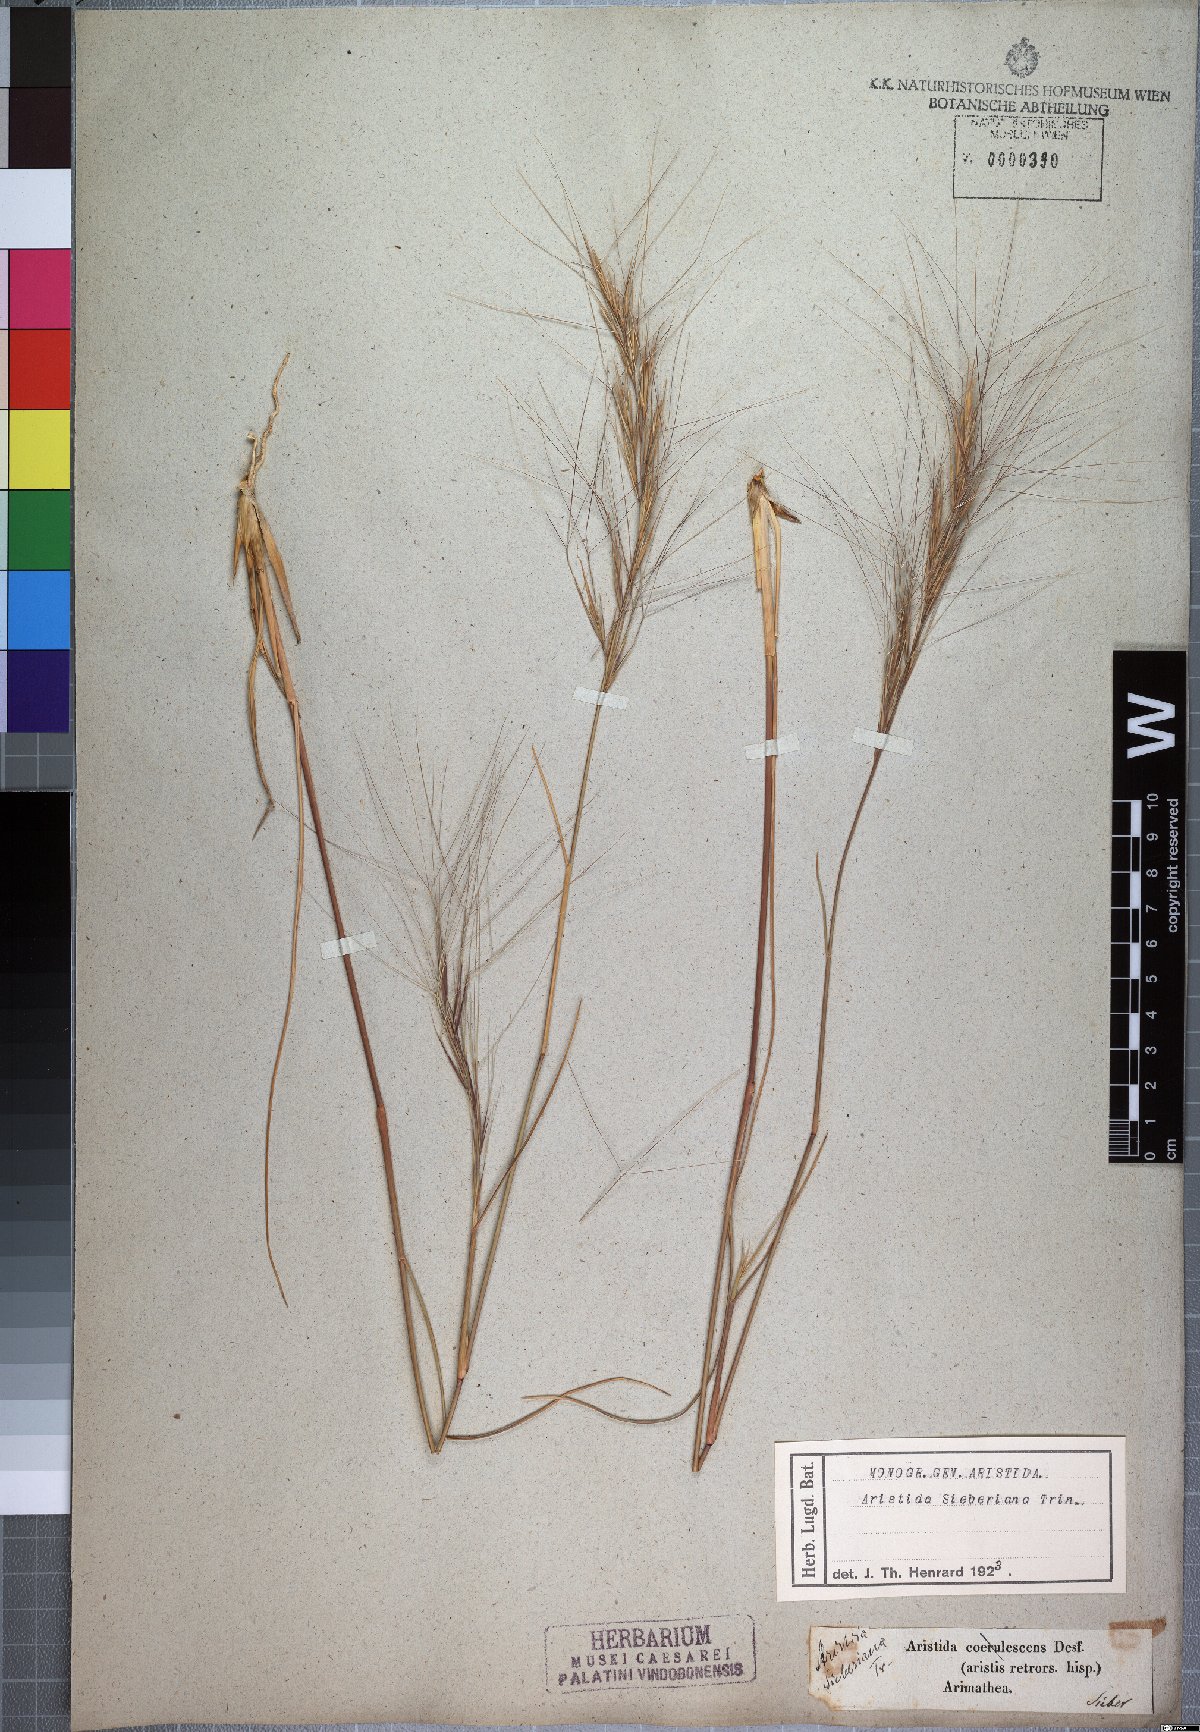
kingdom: Plantae
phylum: Tracheophyta
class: Liliopsida
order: Poales
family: Poaceae
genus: Aristida
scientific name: Aristida sieberiana
